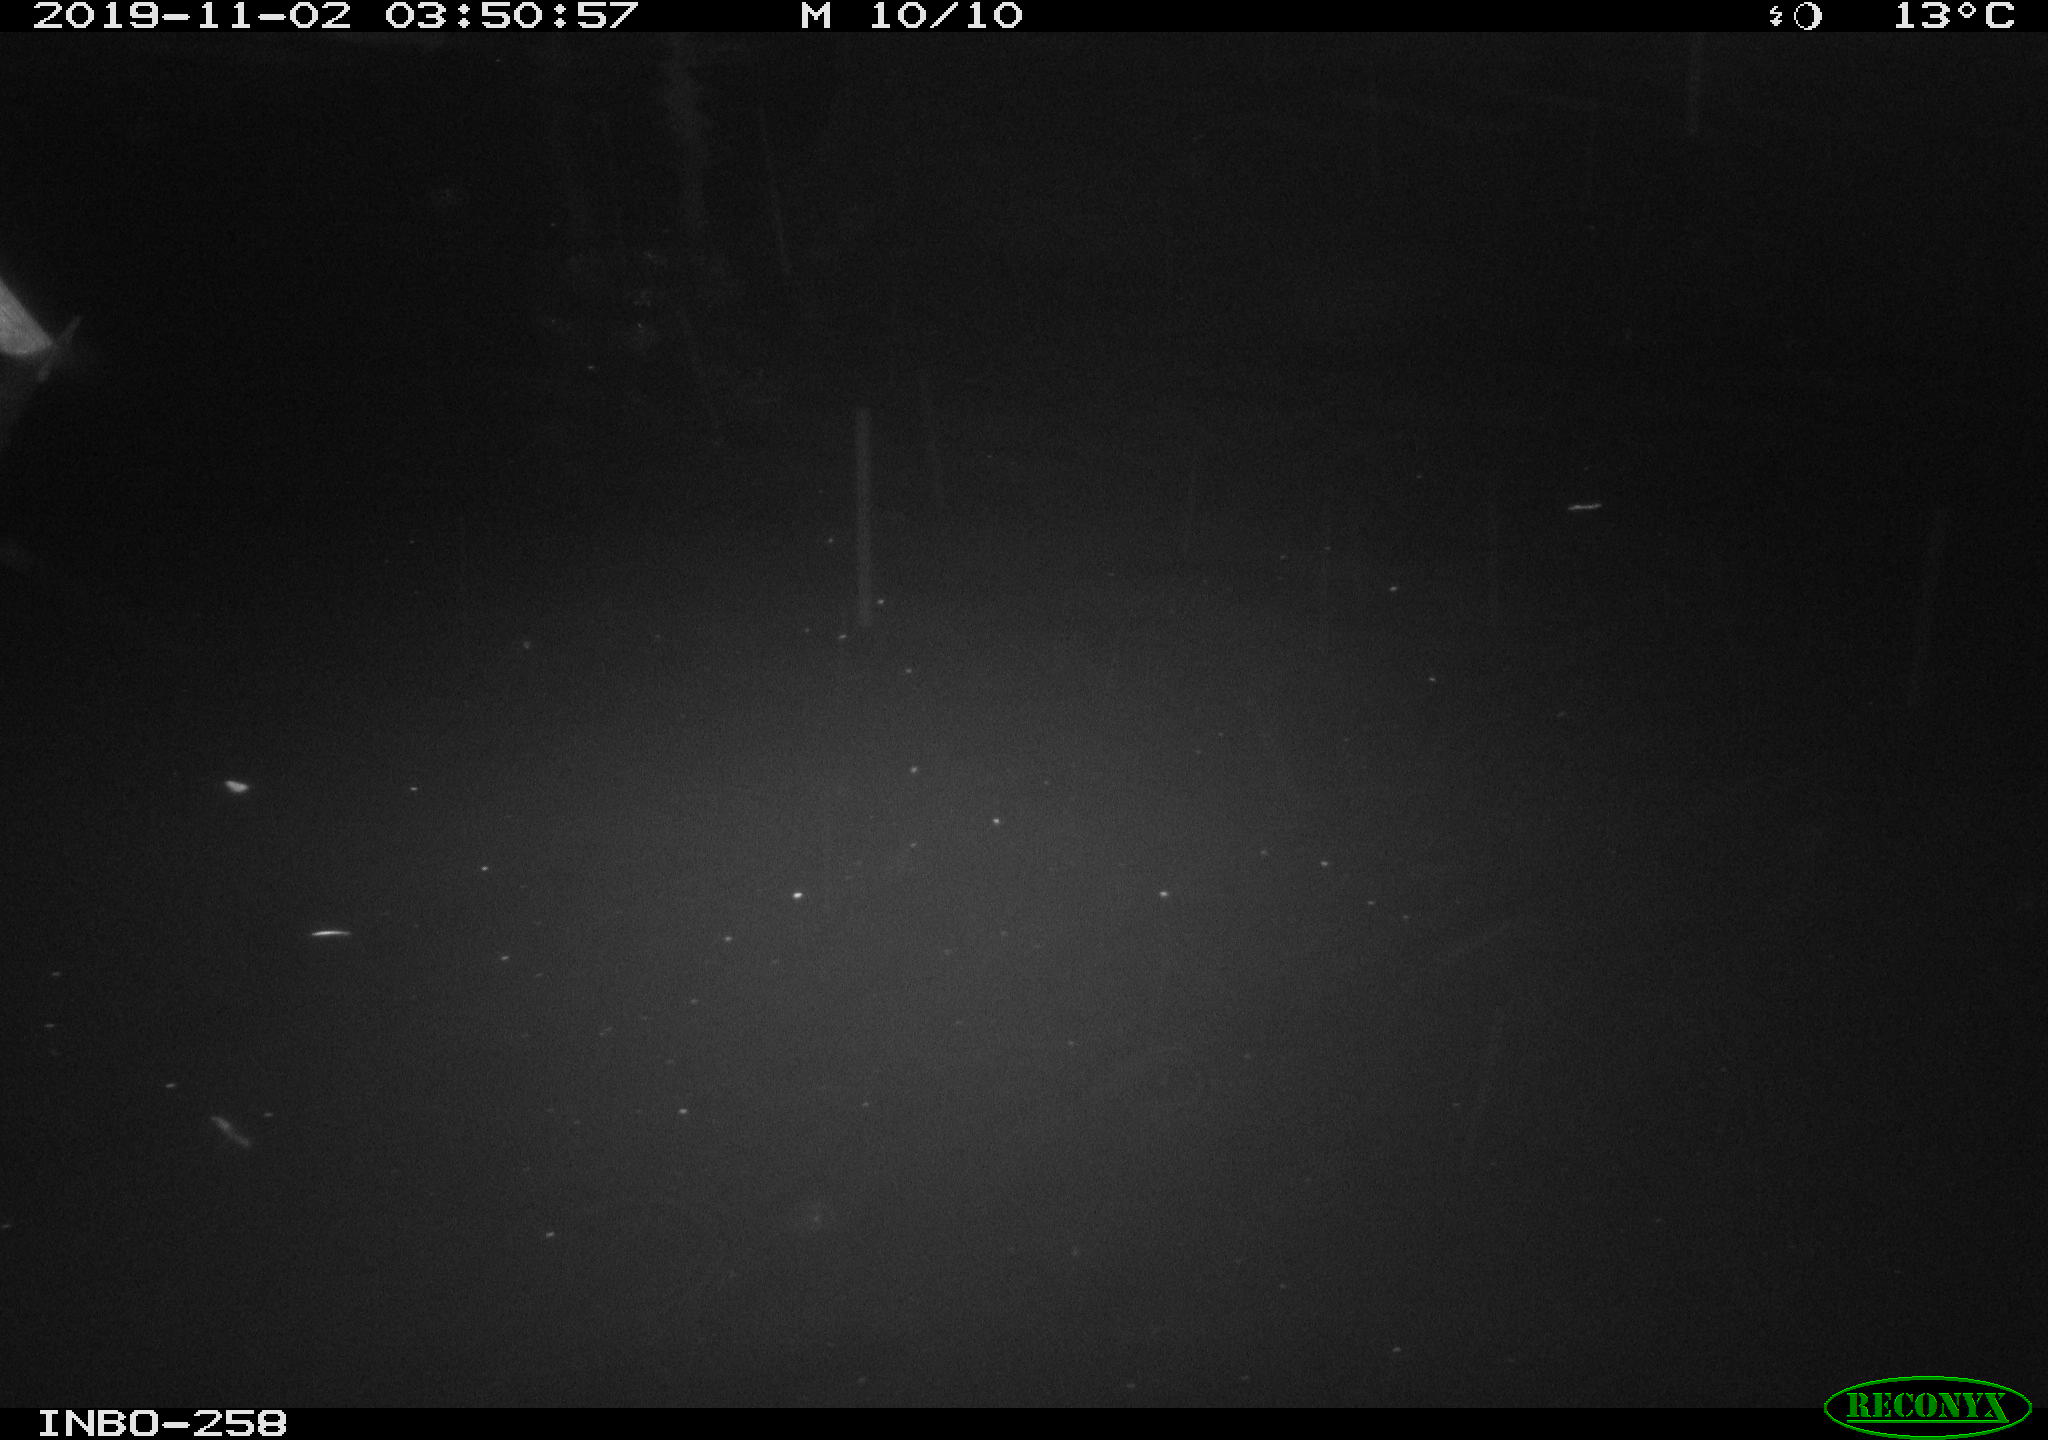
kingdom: Animalia
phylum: Chordata
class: Aves
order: Anseriformes
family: Anatidae
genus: Anas
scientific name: Anas platyrhynchos
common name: Mallard
